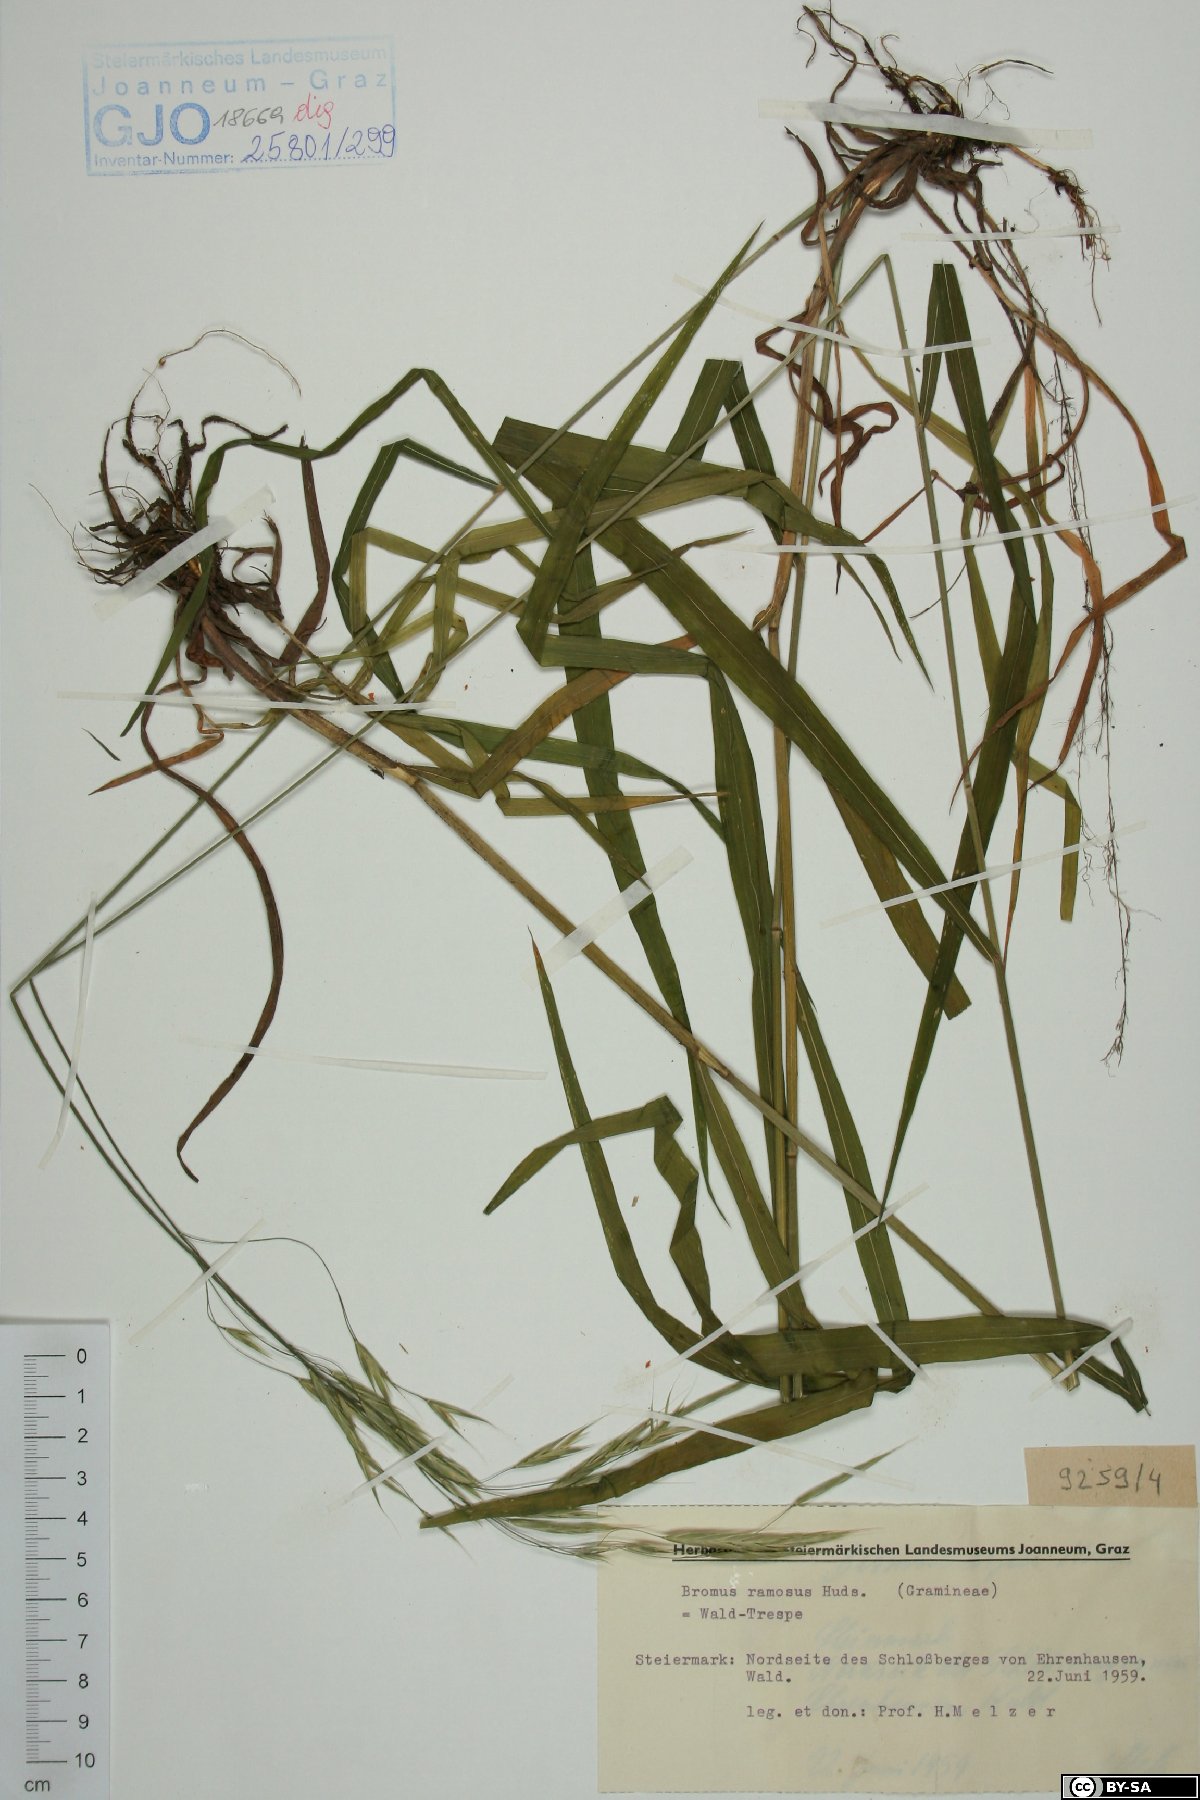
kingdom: Plantae
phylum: Tracheophyta
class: Liliopsida
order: Poales
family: Poaceae
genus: Bromus
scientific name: Bromus ramosus
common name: Hairy brome
